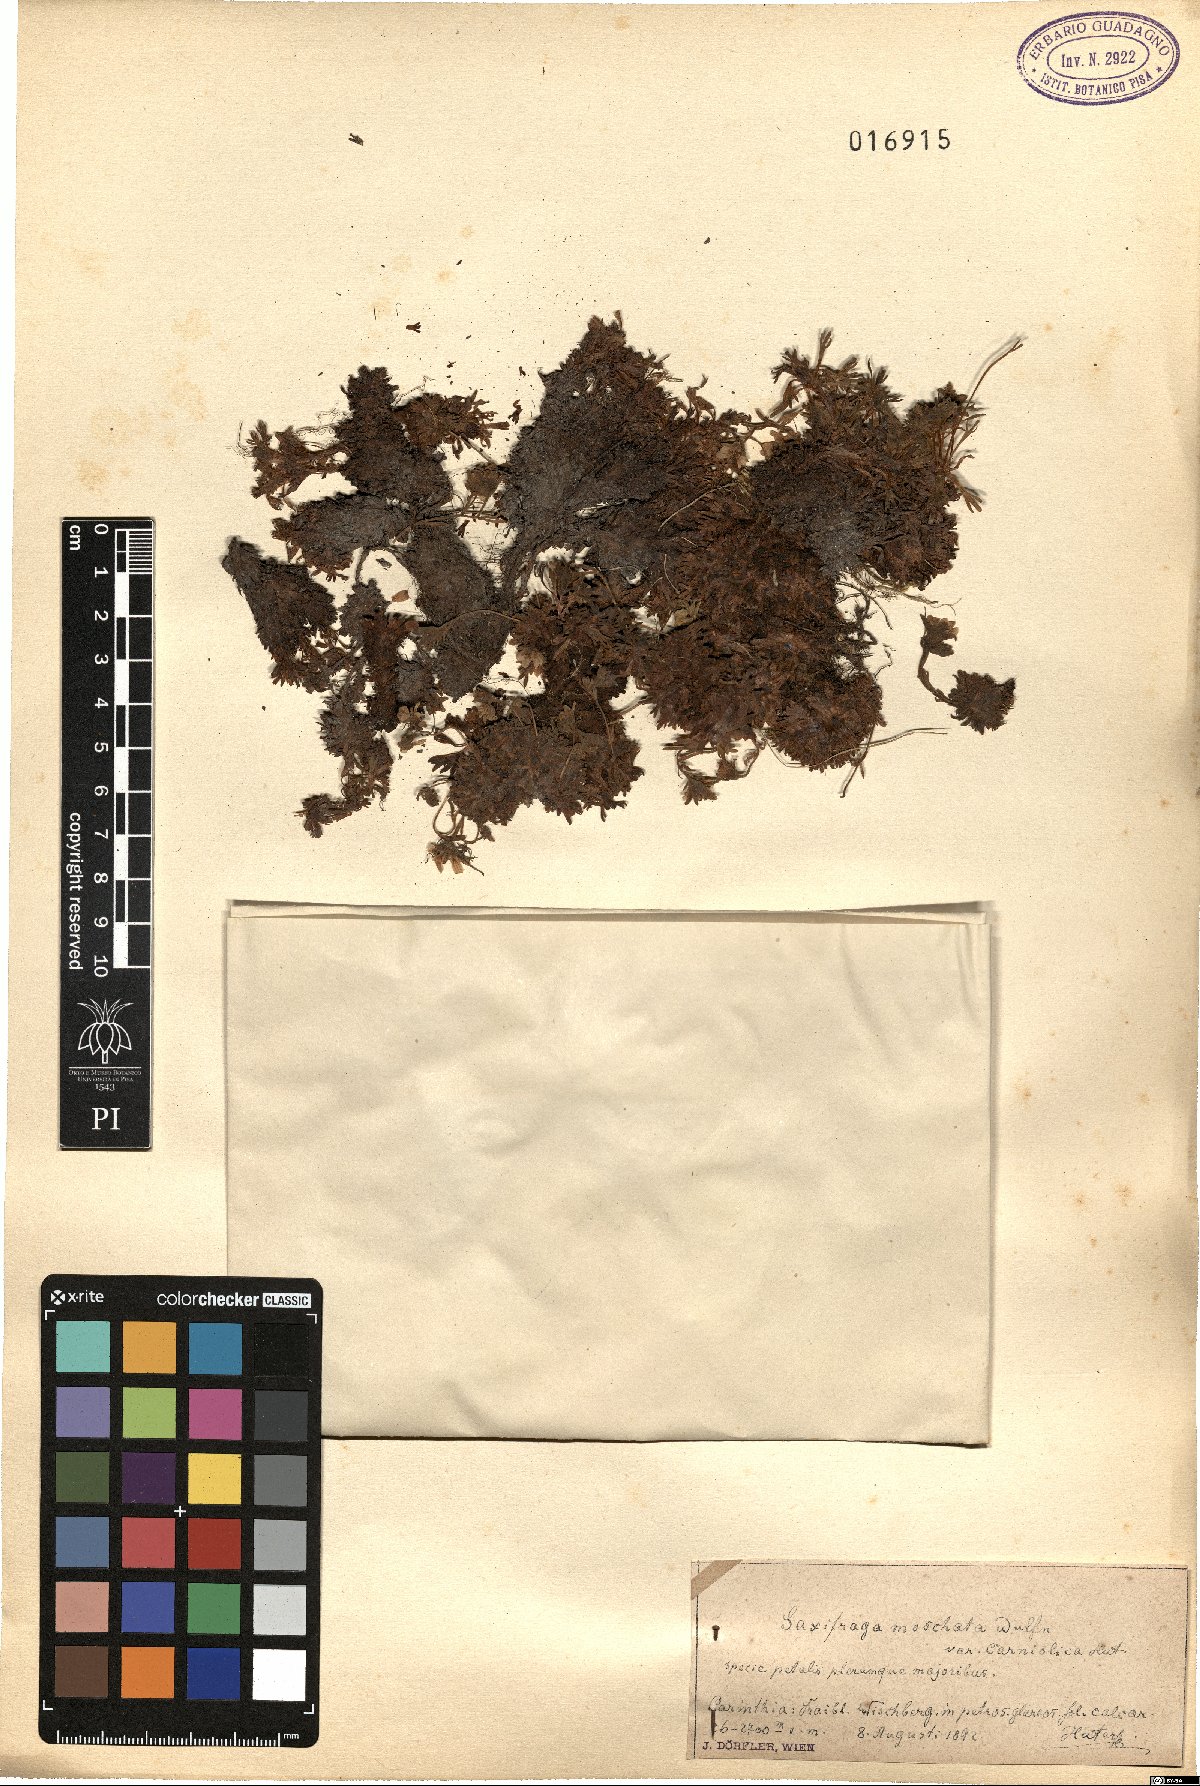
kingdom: Plantae
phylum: Tracheophyta
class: Magnoliopsida
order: Saxifragales
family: Saxifragaceae
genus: Saxifraga
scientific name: Saxifraga exarata
